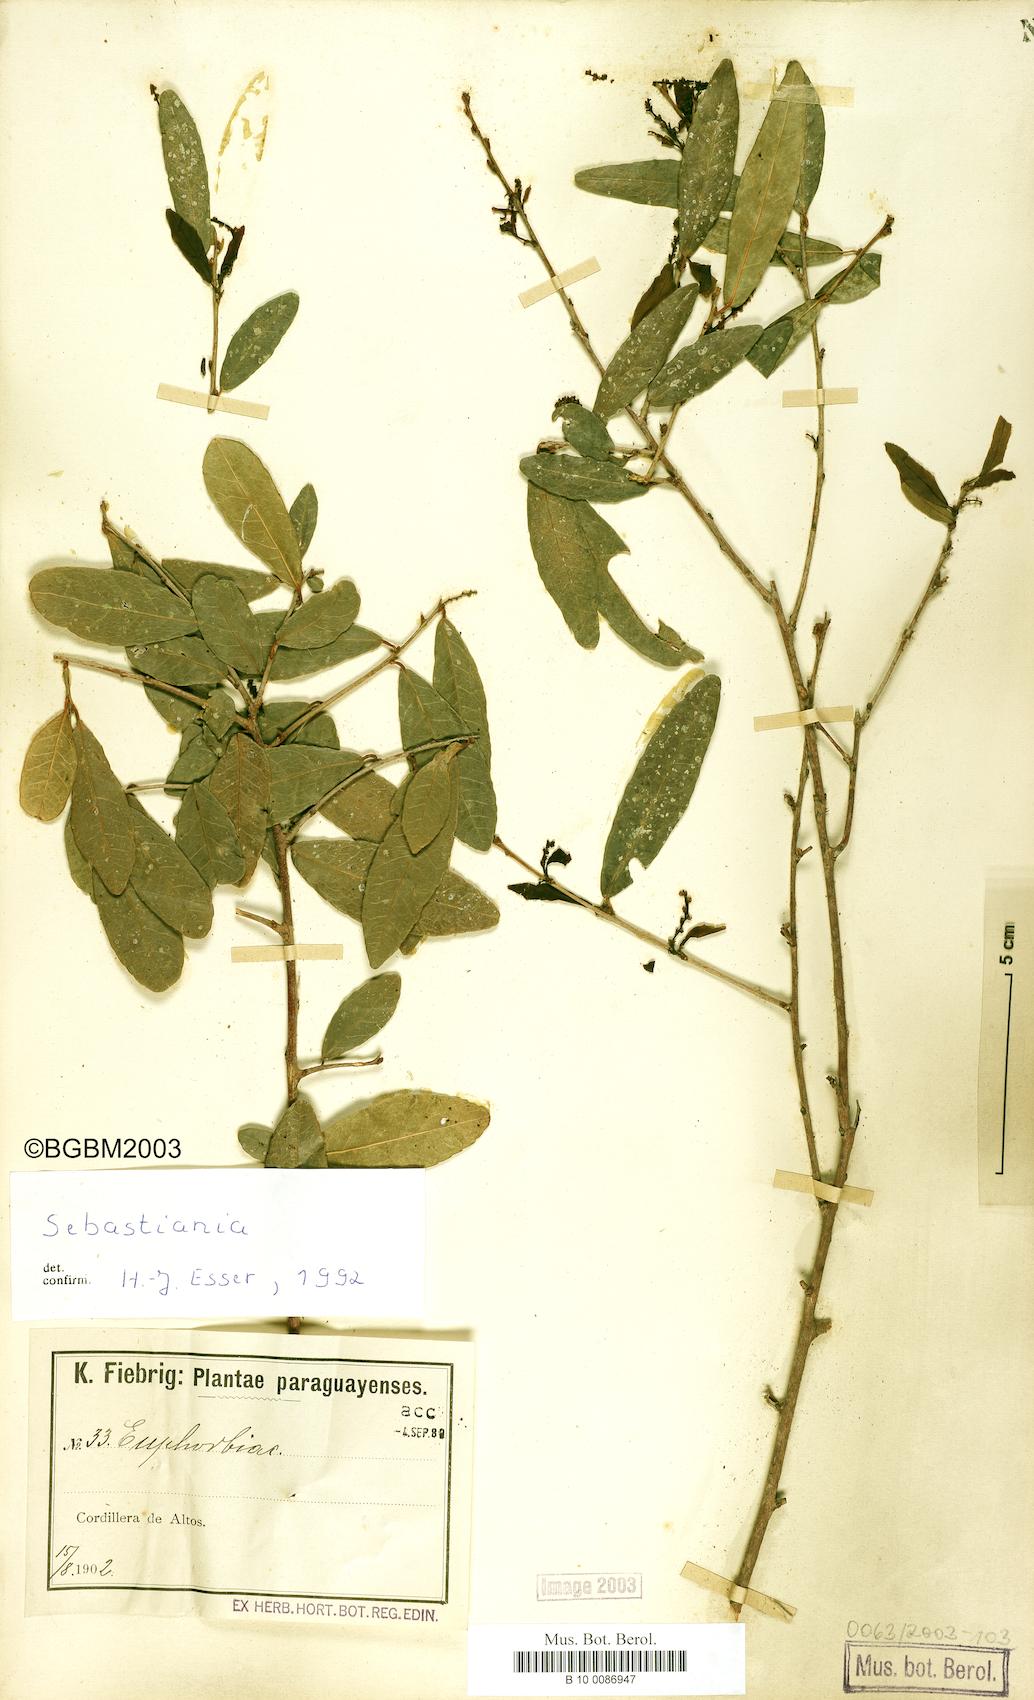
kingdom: Plantae
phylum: Tracheophyta
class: Magnoliopsida
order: Malpighiales
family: Euphorbiaceae
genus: Sebastiania
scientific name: Sebastiania serrata
